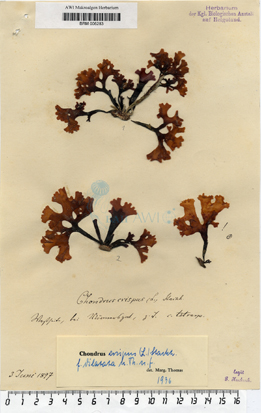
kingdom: Plantae
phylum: Rhodophyta
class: Florideophyceae
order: Gigartinales
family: Gigartinaceae
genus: Chondrus
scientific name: Chondrus crispus
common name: Carrageen
